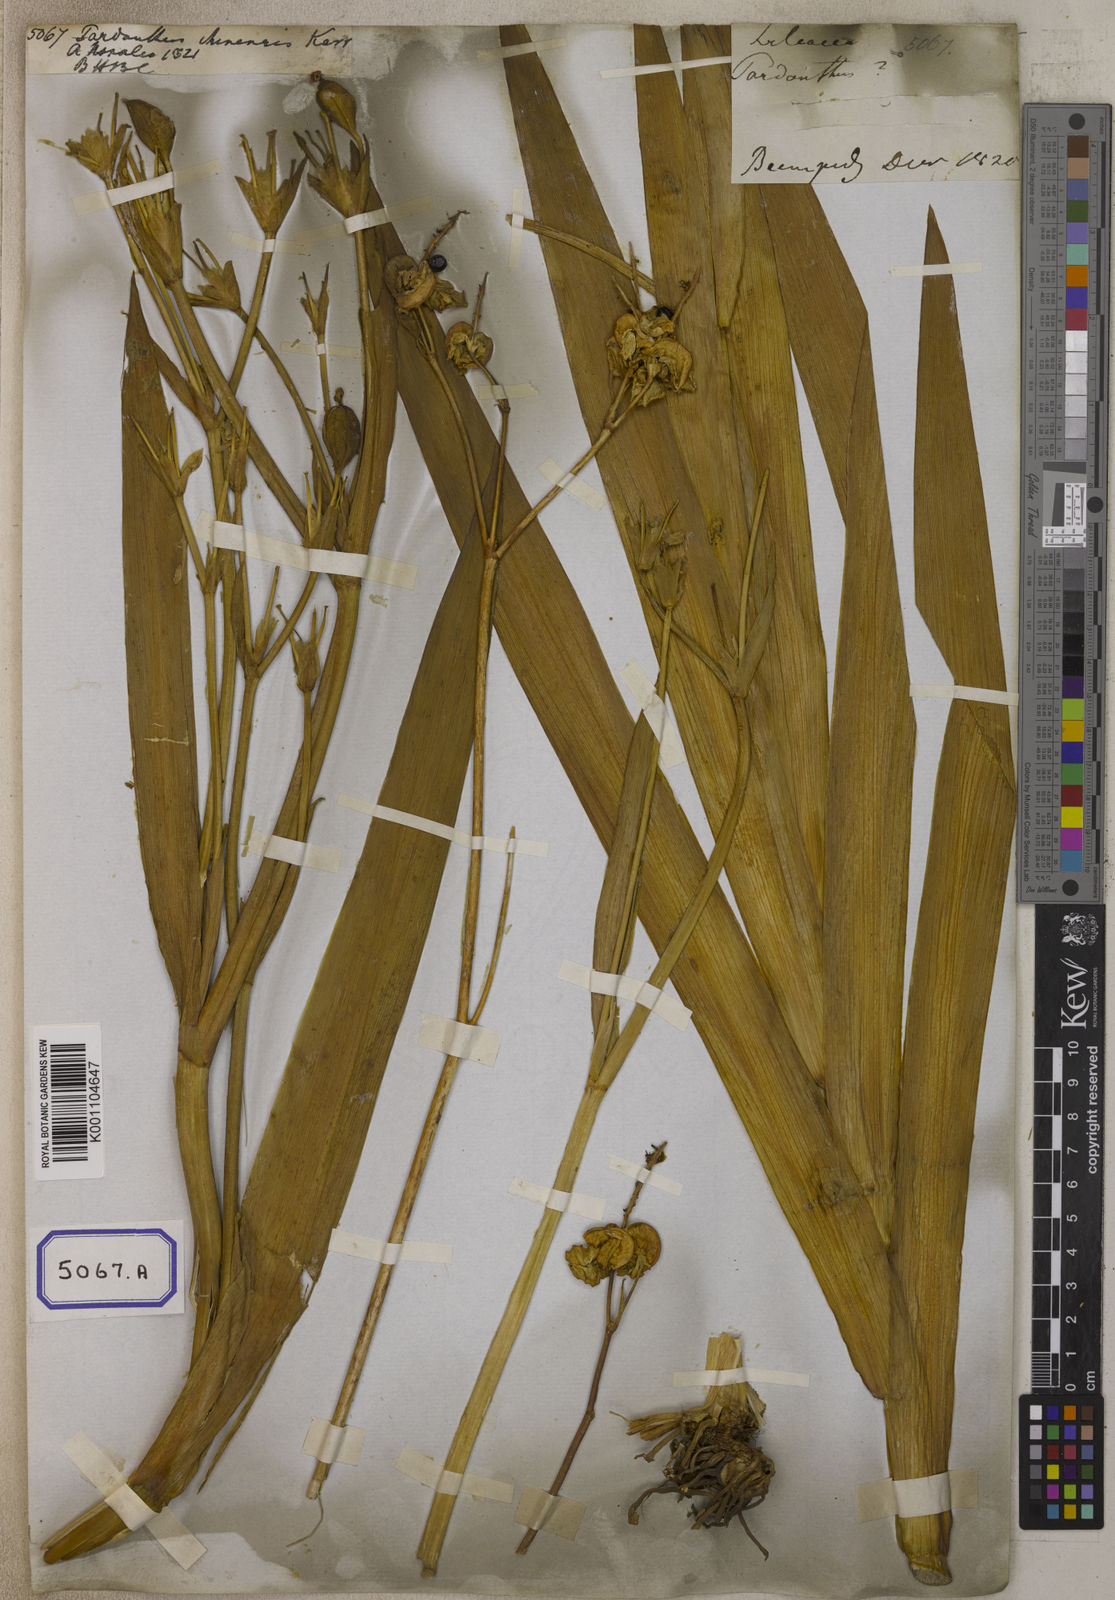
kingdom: Plantae
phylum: Tracheophyta
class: Liliopsida
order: Asparagales
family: Iridaceae
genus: Iris
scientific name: Iris domestica
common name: Belamcanda
